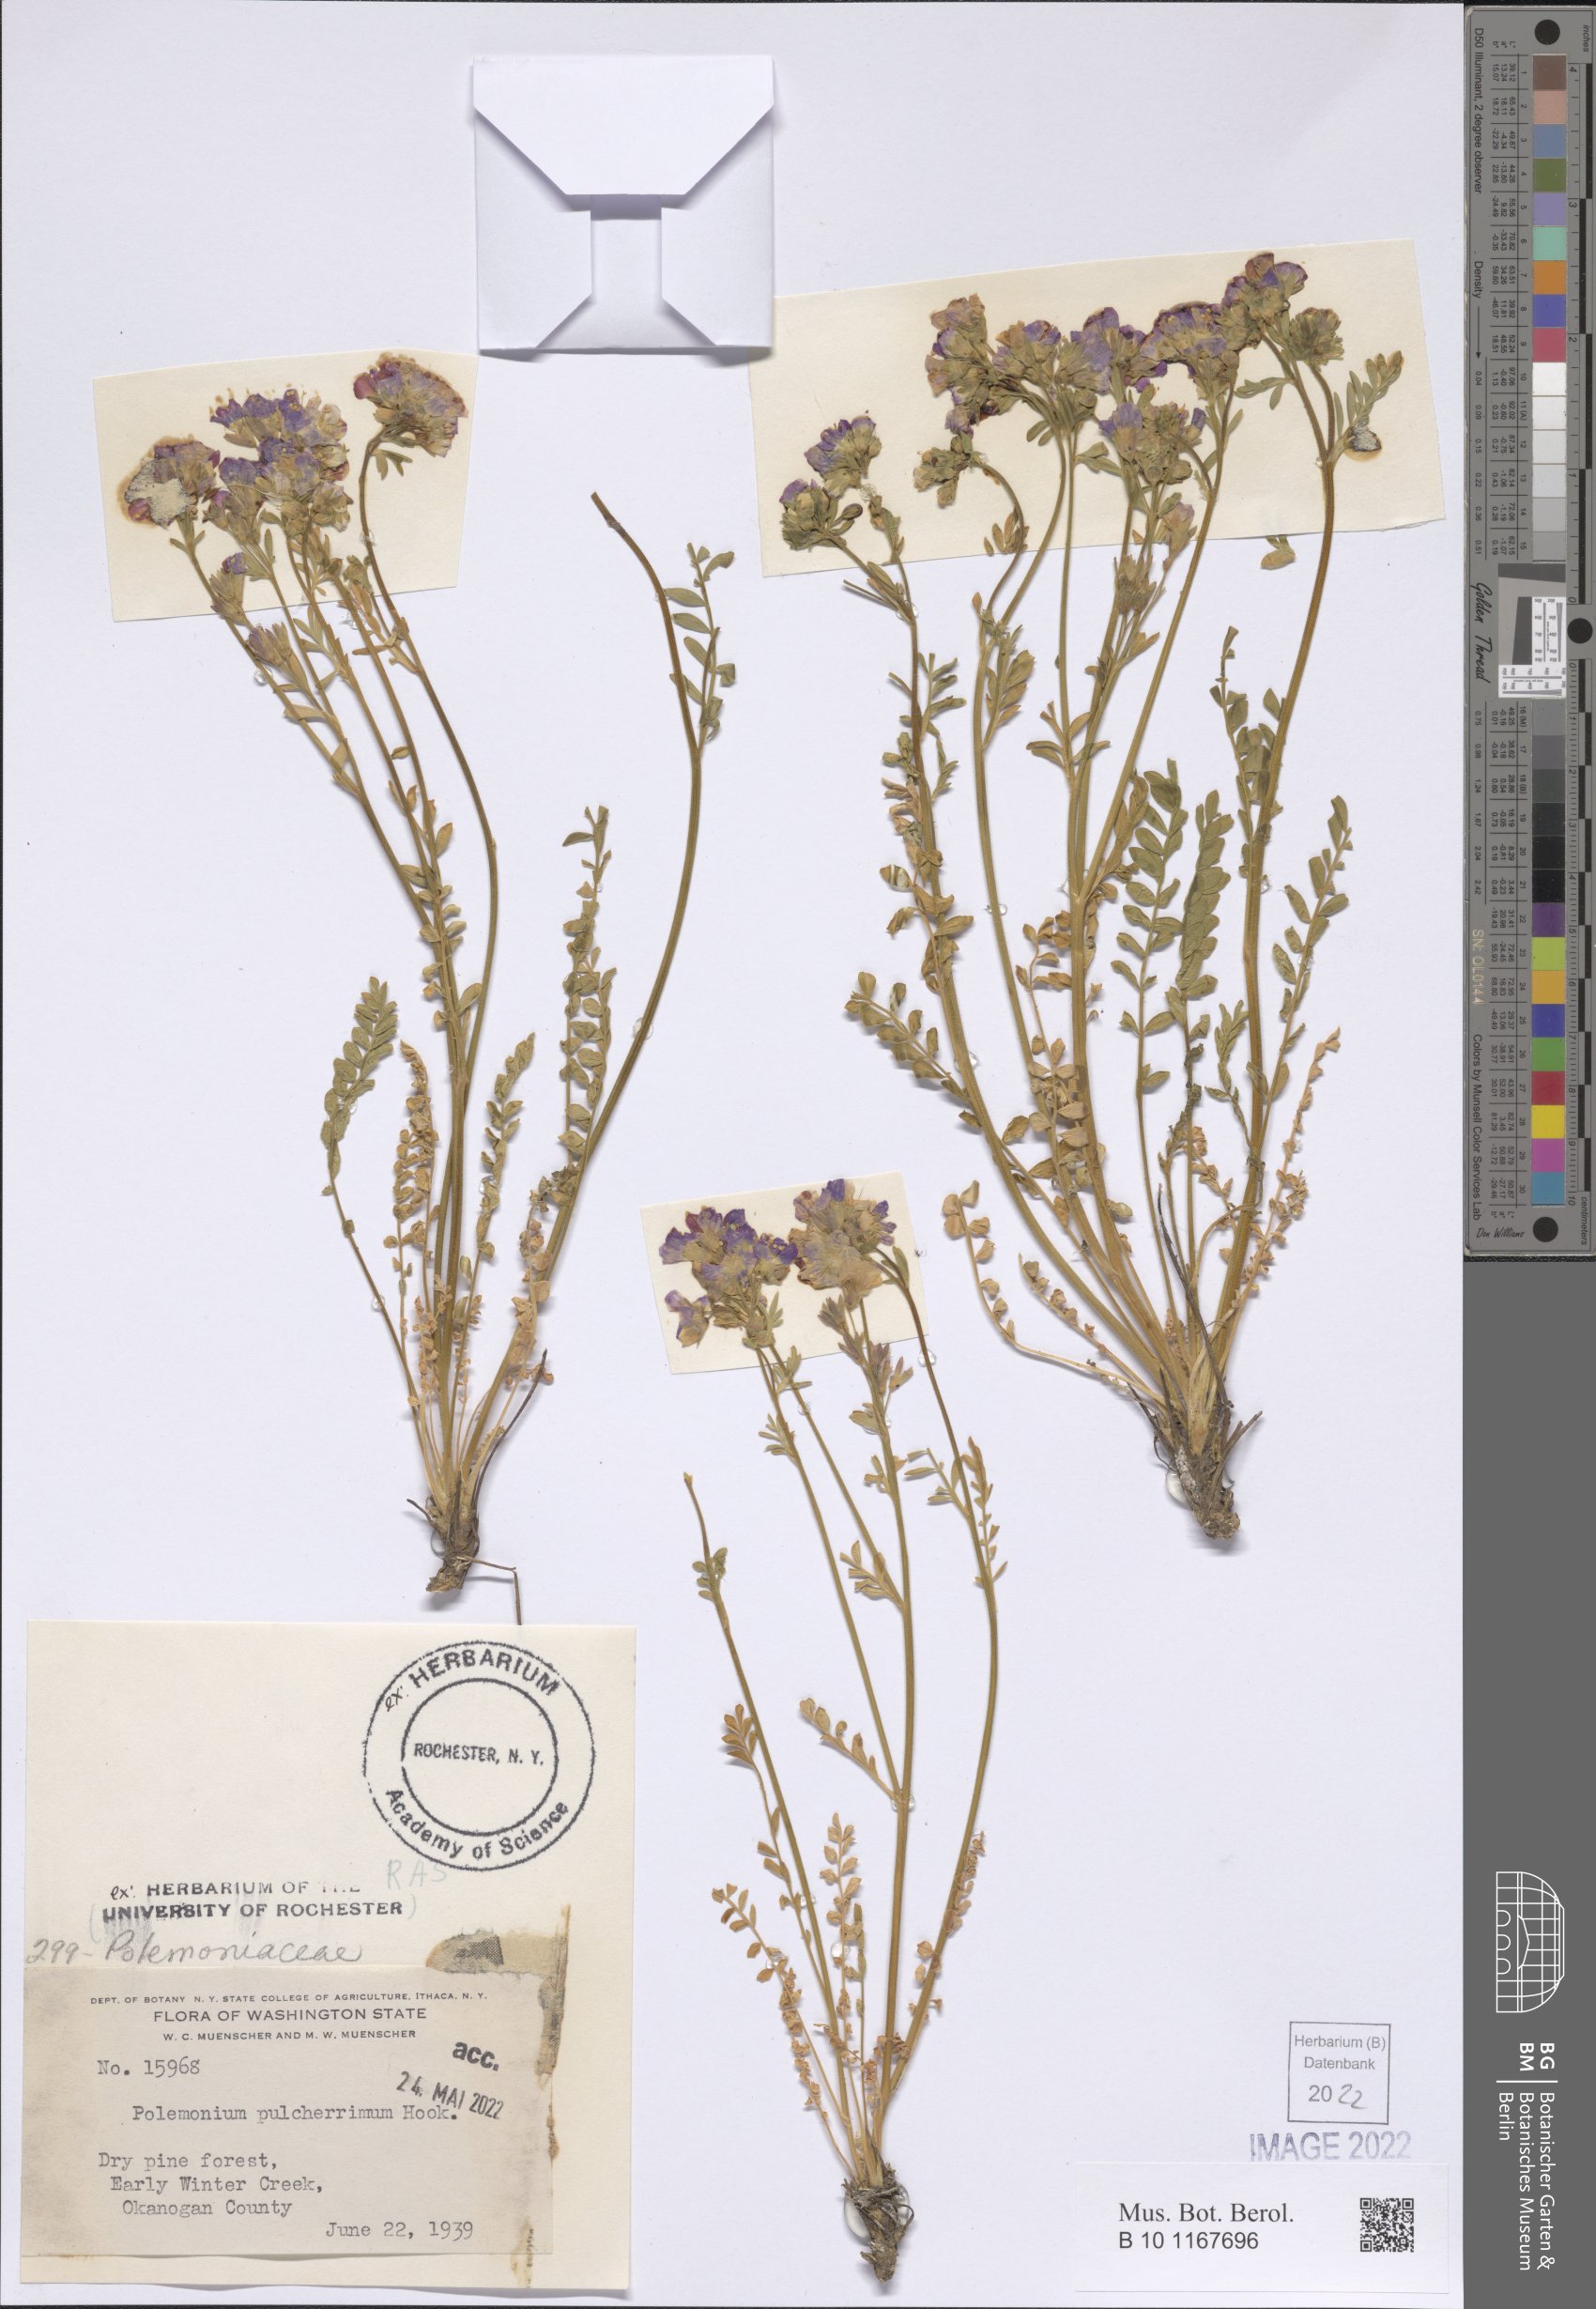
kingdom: Plantae
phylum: Tracheophyta
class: Magnoliopsida
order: Ericales
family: Polemoniaceae
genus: Polemonium
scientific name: Polemonium pulcherrimum
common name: Short jacob's-ladder
